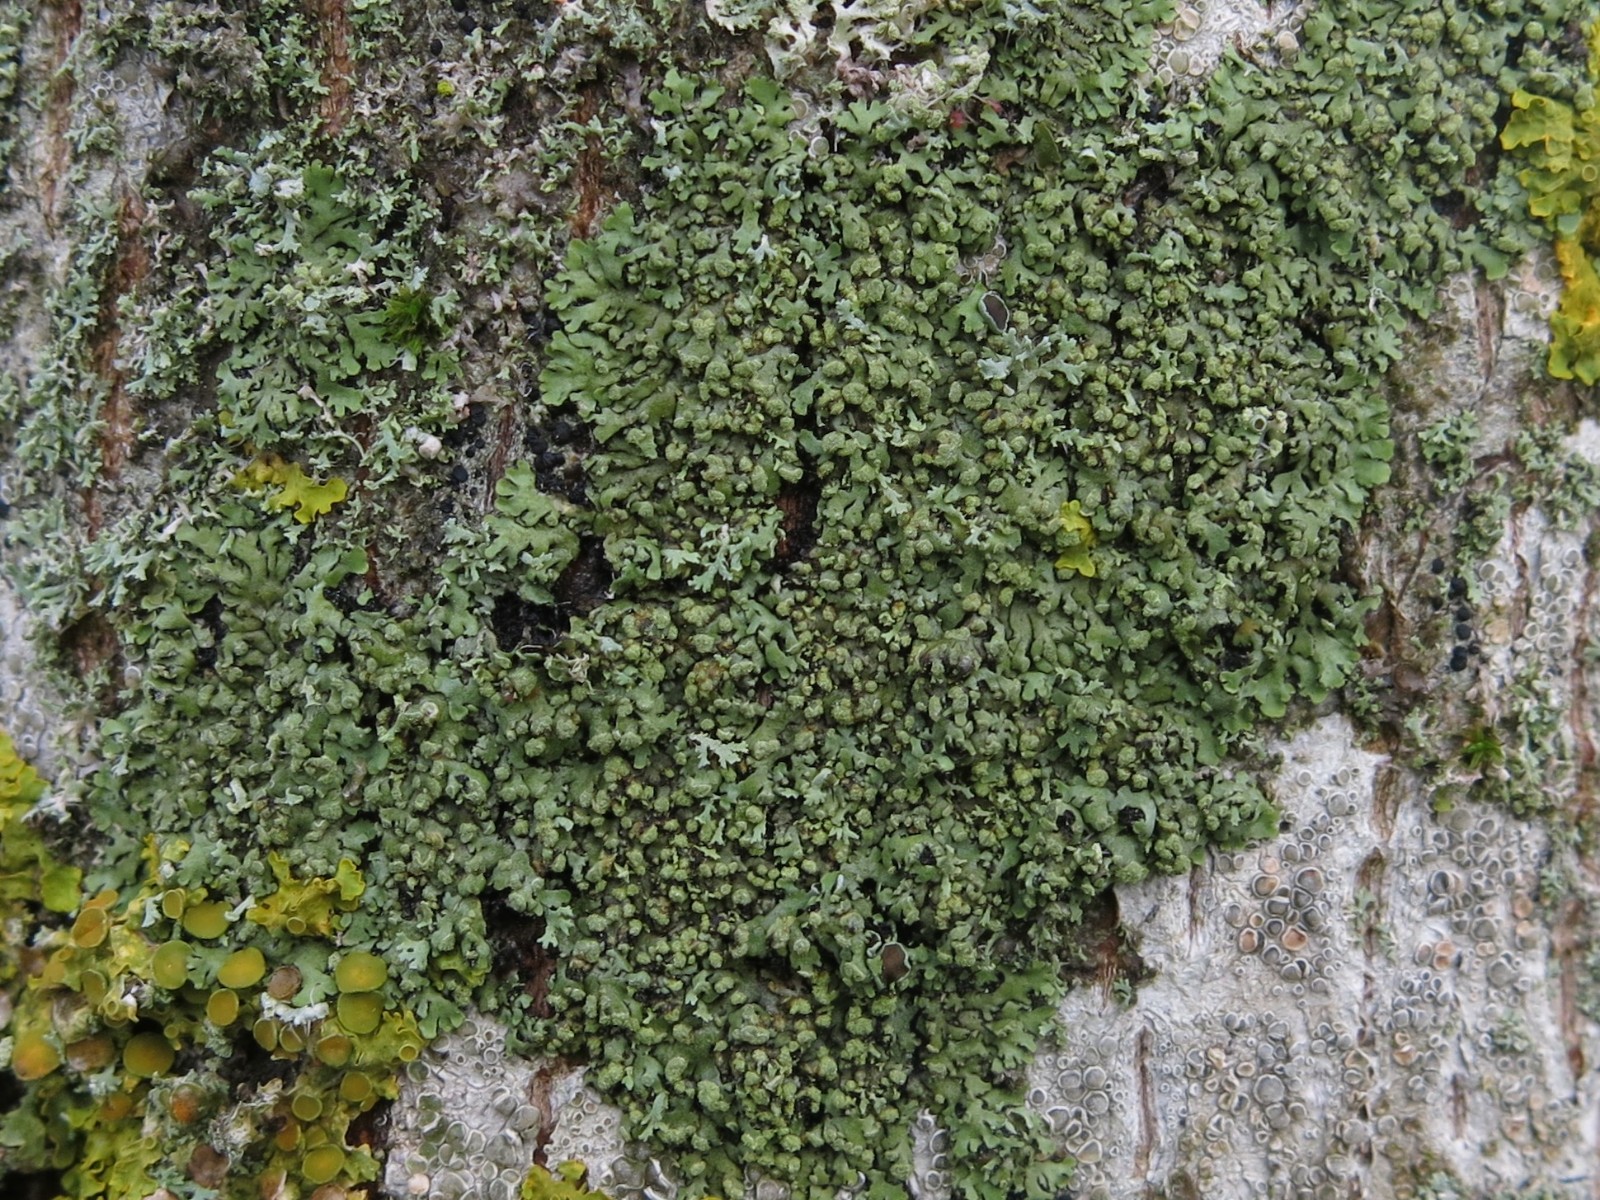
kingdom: Fungi
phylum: Ascomycota
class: Lecanoromycetes
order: Caliciales
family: Physciaceae
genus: Phaeophyscia
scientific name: Phaeophyscia orbicularis
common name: grågrøn rosetlav
